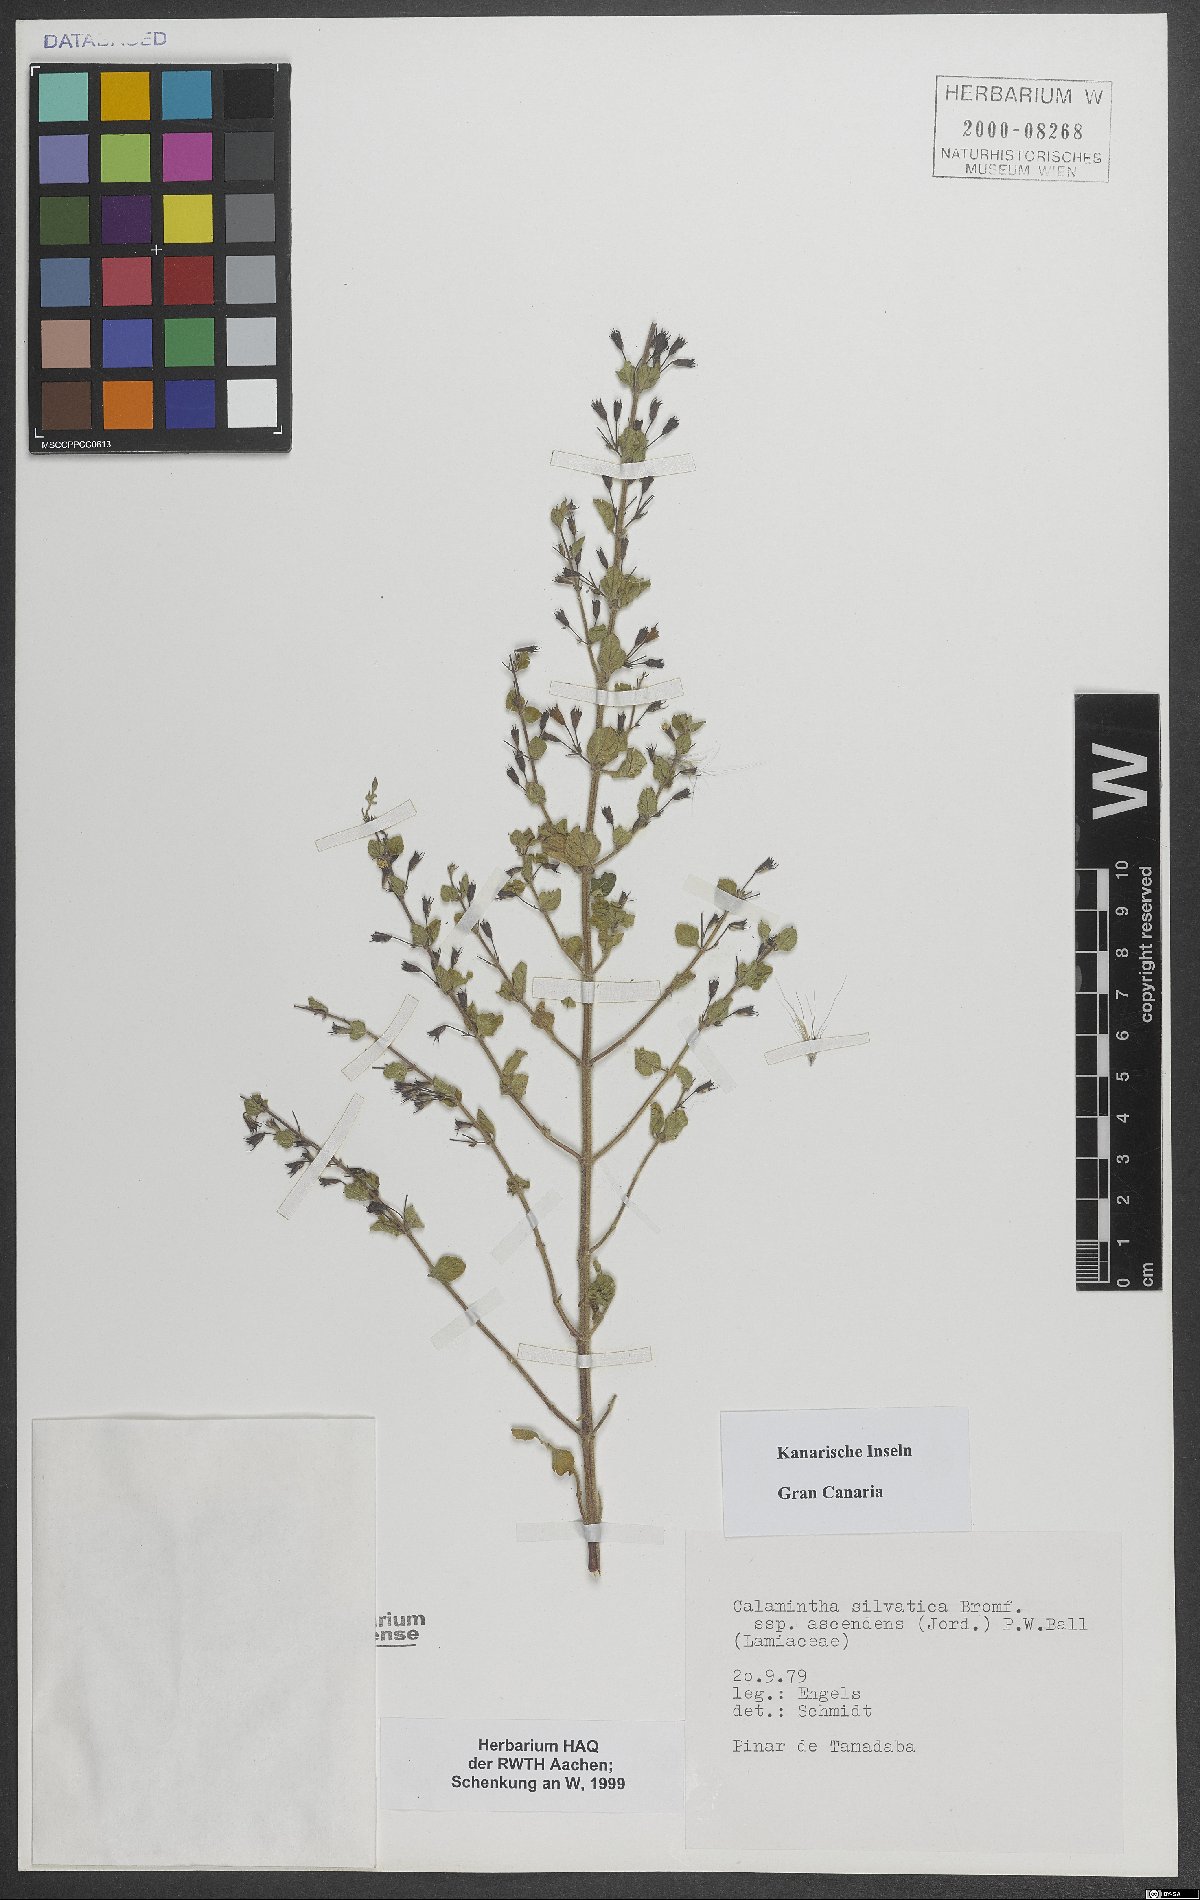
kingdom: Plantae
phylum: Tracheophyta
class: Magnoliopsida
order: Lamiales
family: Lamiaceae
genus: Clinopodium
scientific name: Clinopodium menthifolium
